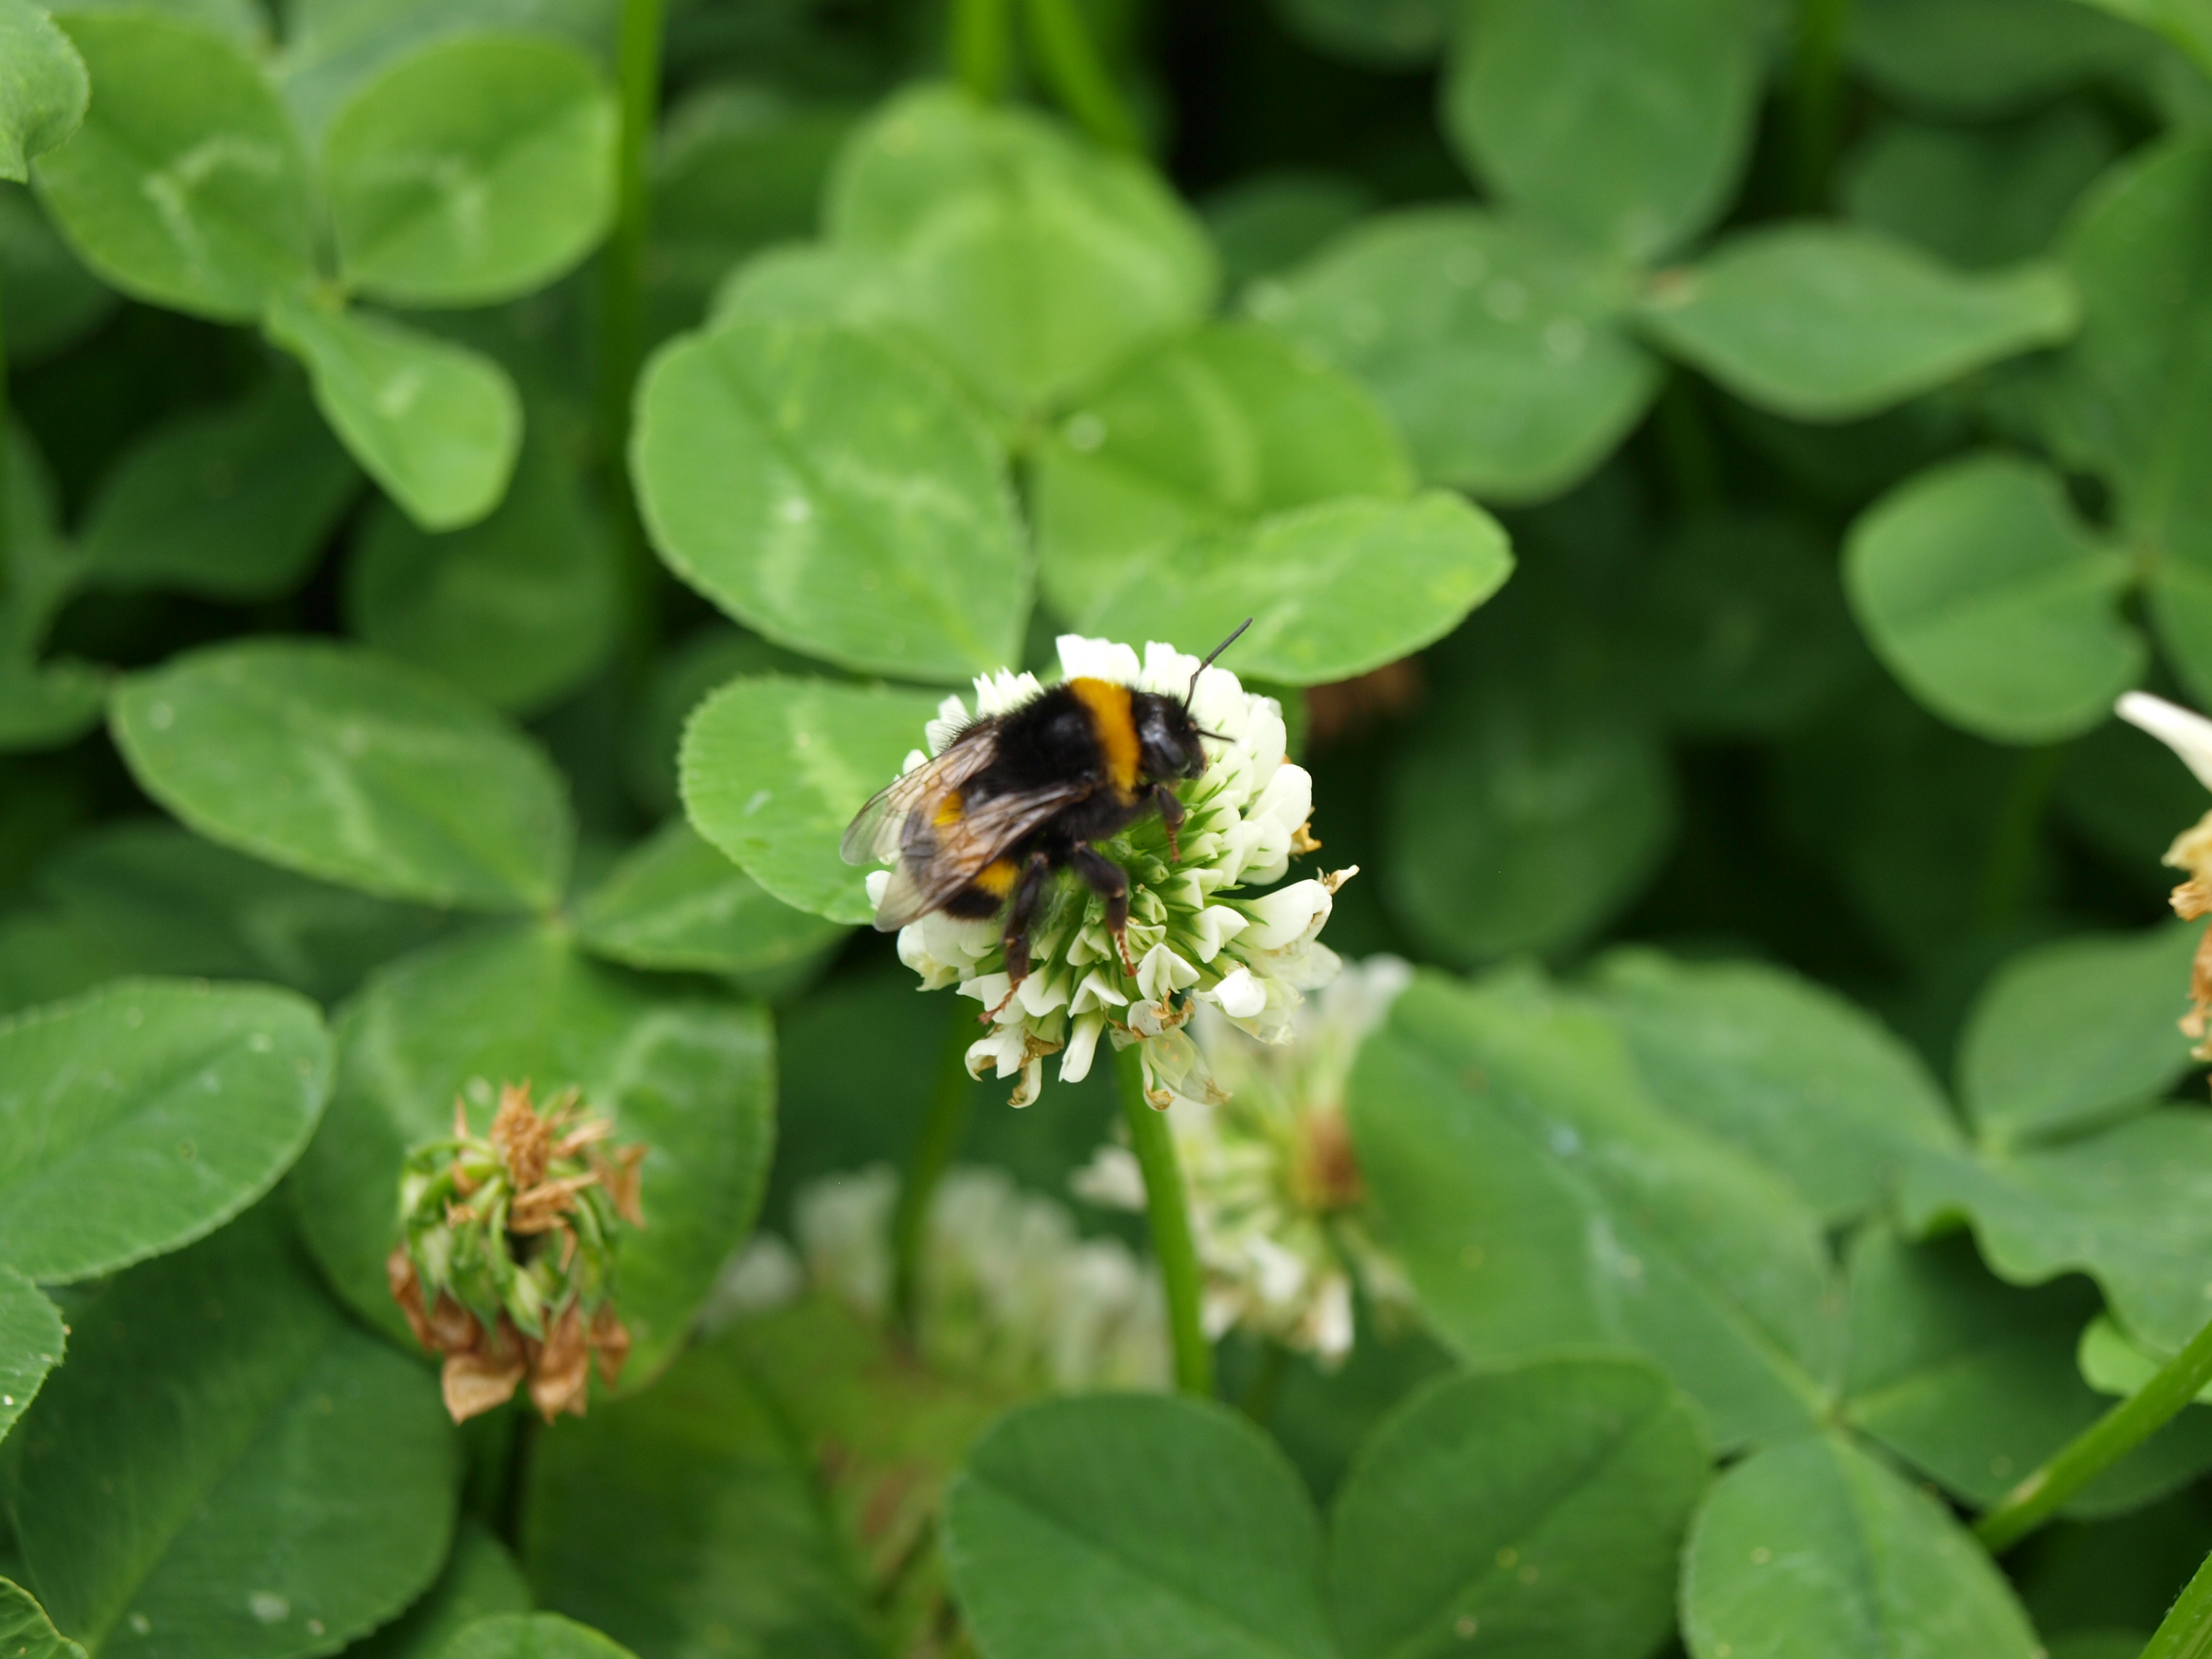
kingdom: Plantae
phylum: Tracheophyta
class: Magnoliopsida
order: Fabales
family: Fabaceae
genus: Trifolium
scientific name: Trifolium repens
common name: White clover
